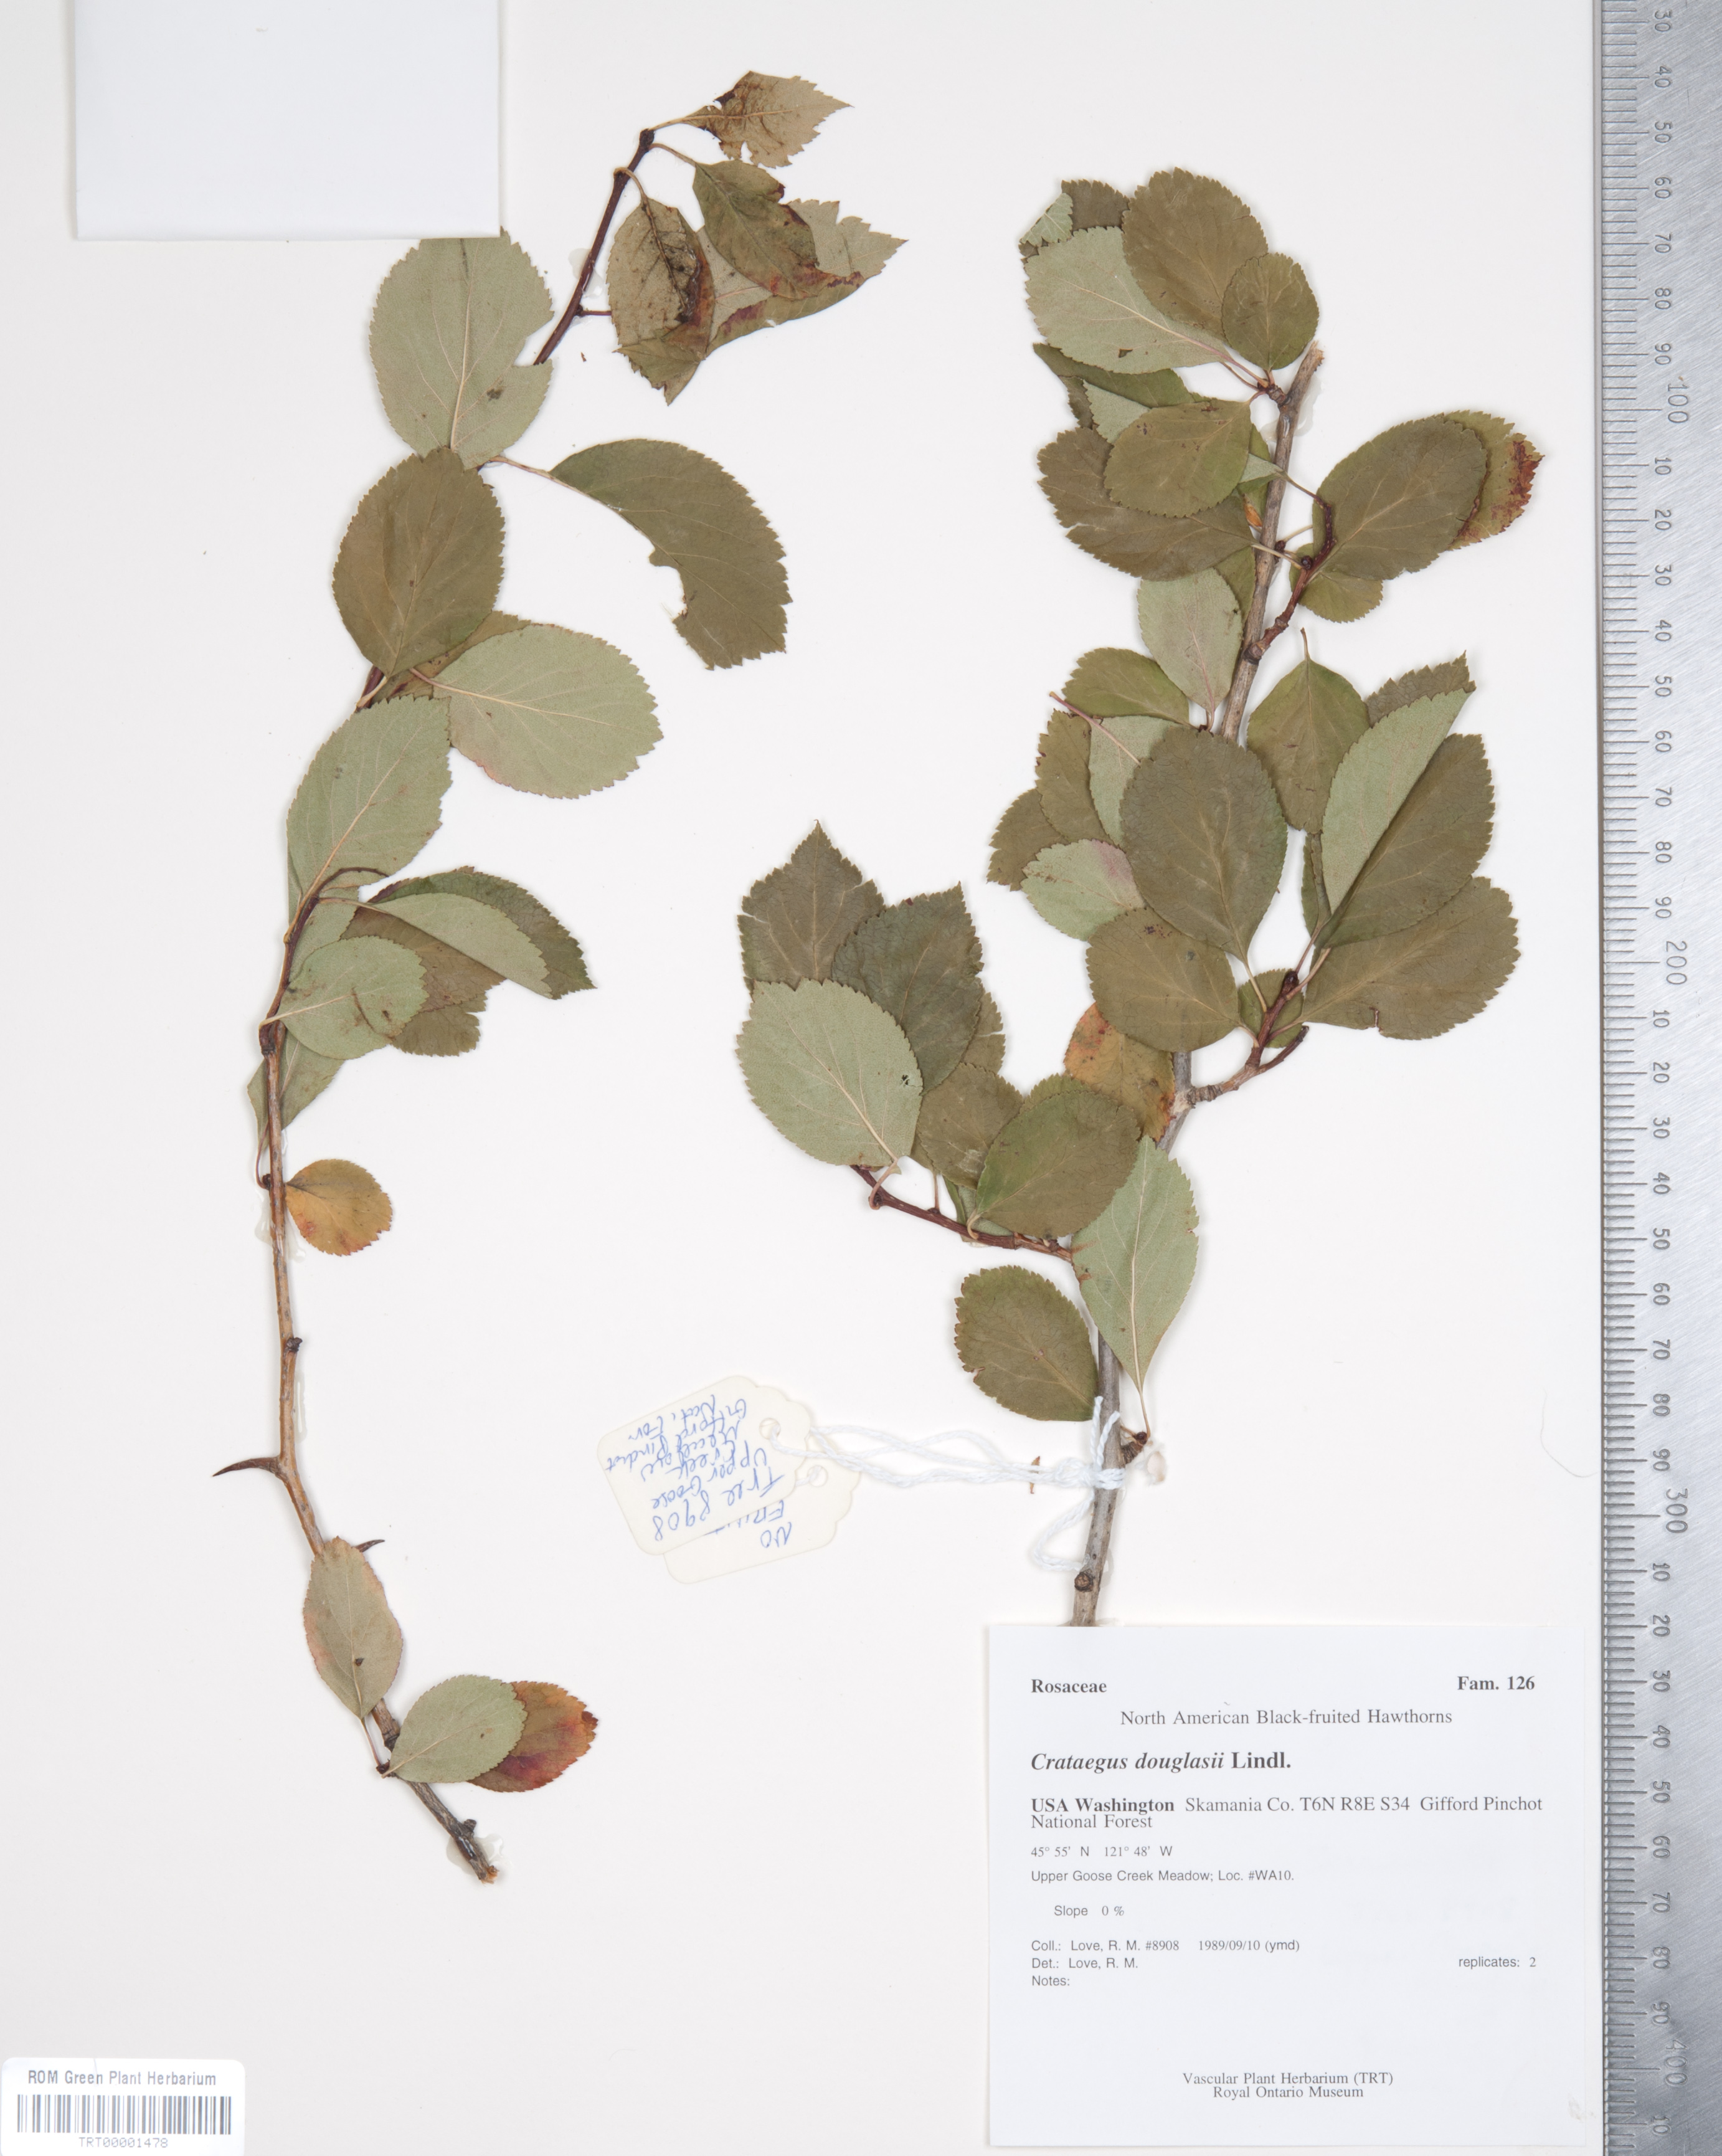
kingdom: Plantae
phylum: Tracheophyta
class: Magnoliopsida
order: Rosales
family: Rosaceae
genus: Crataegus
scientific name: Crataegus douglasii
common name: Black hawthorn
